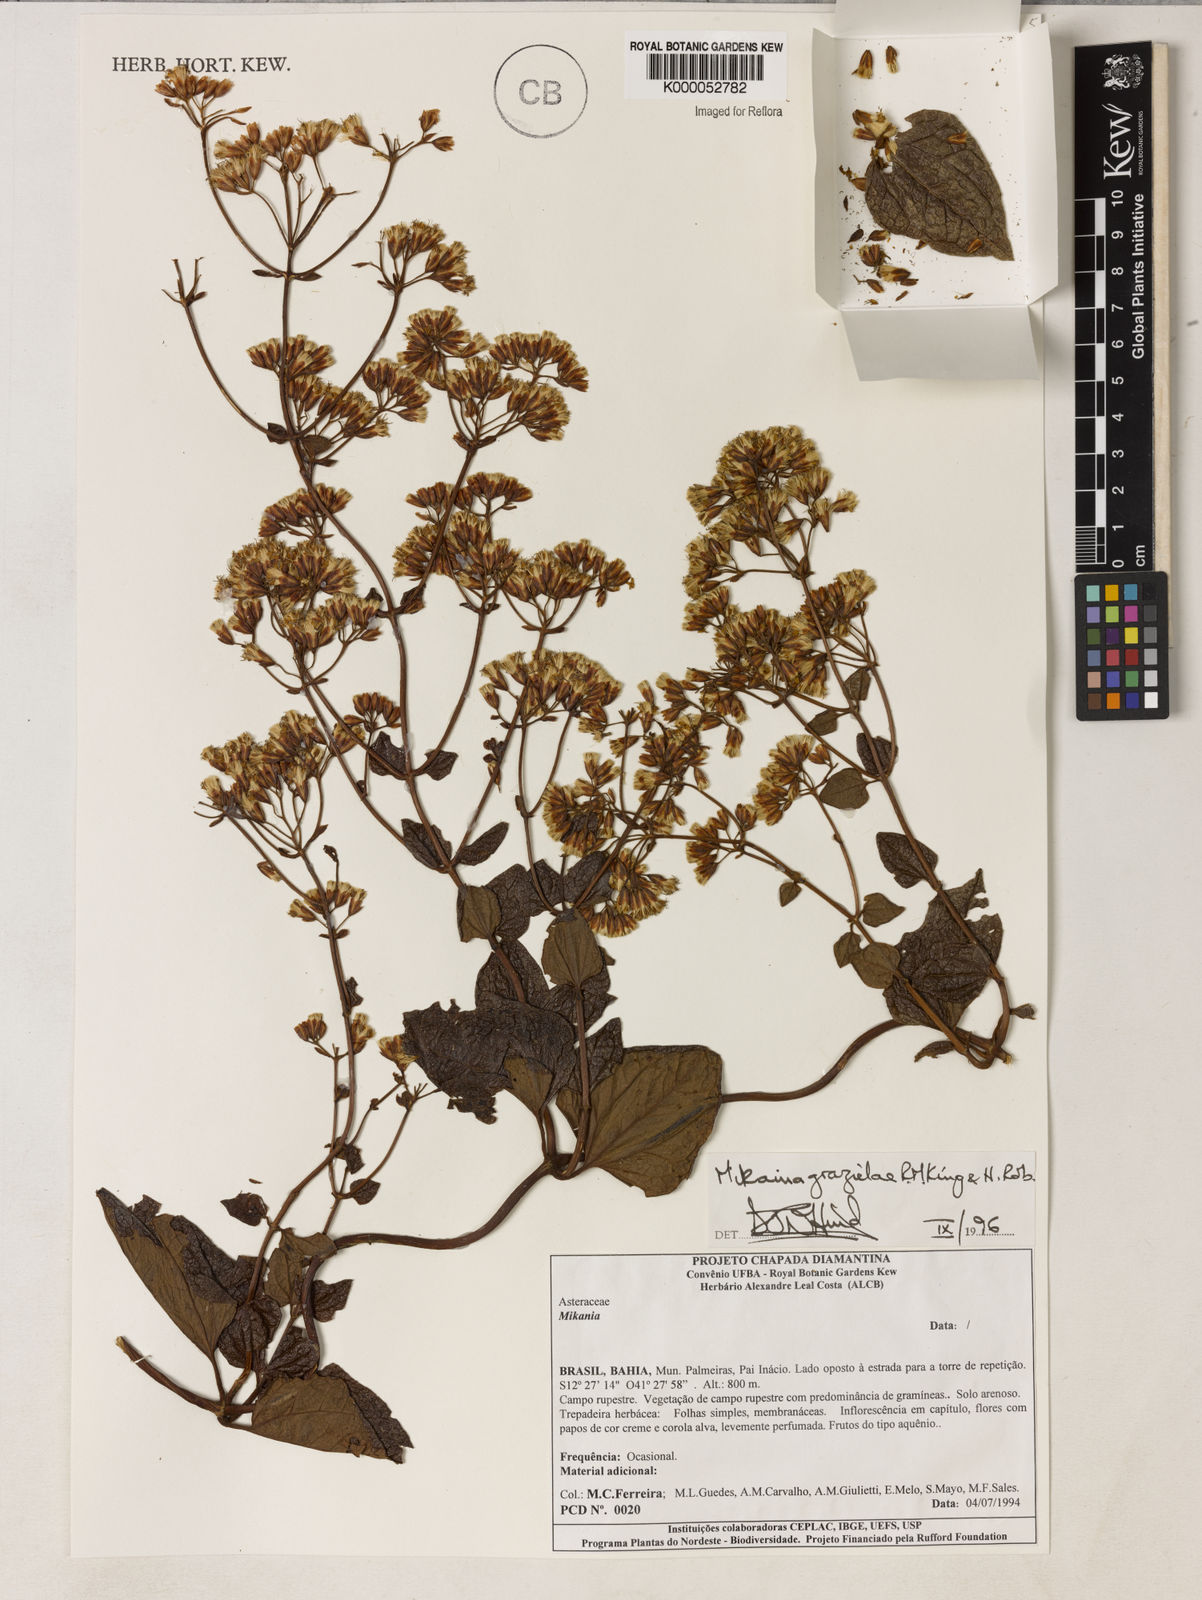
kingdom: Plantae
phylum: Tracheophyta
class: Magnoliopsida
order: Asterales
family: Asteraceae
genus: Mikania
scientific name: Mikania grazielae
